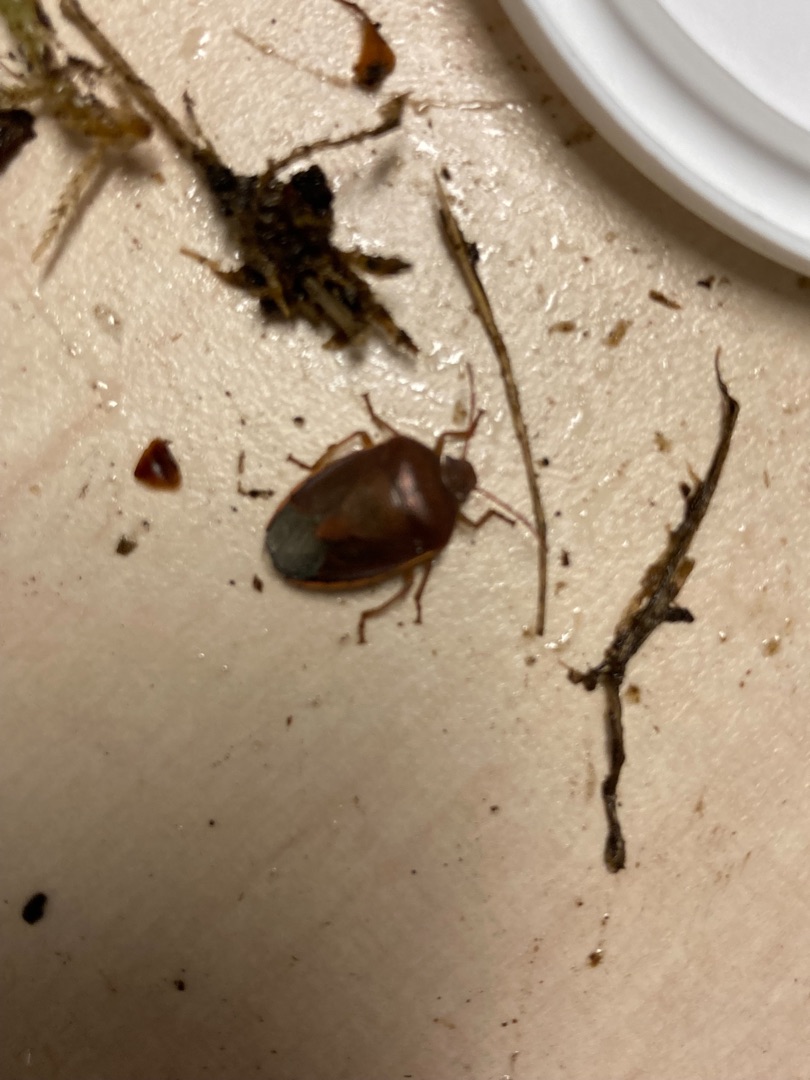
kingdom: Animalia
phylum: Arthropoda
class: Insecta
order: Hemiptera
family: Pentatomidae
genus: Piezodorus
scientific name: Piezodorus lituratus
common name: Gyvelbredtæge
